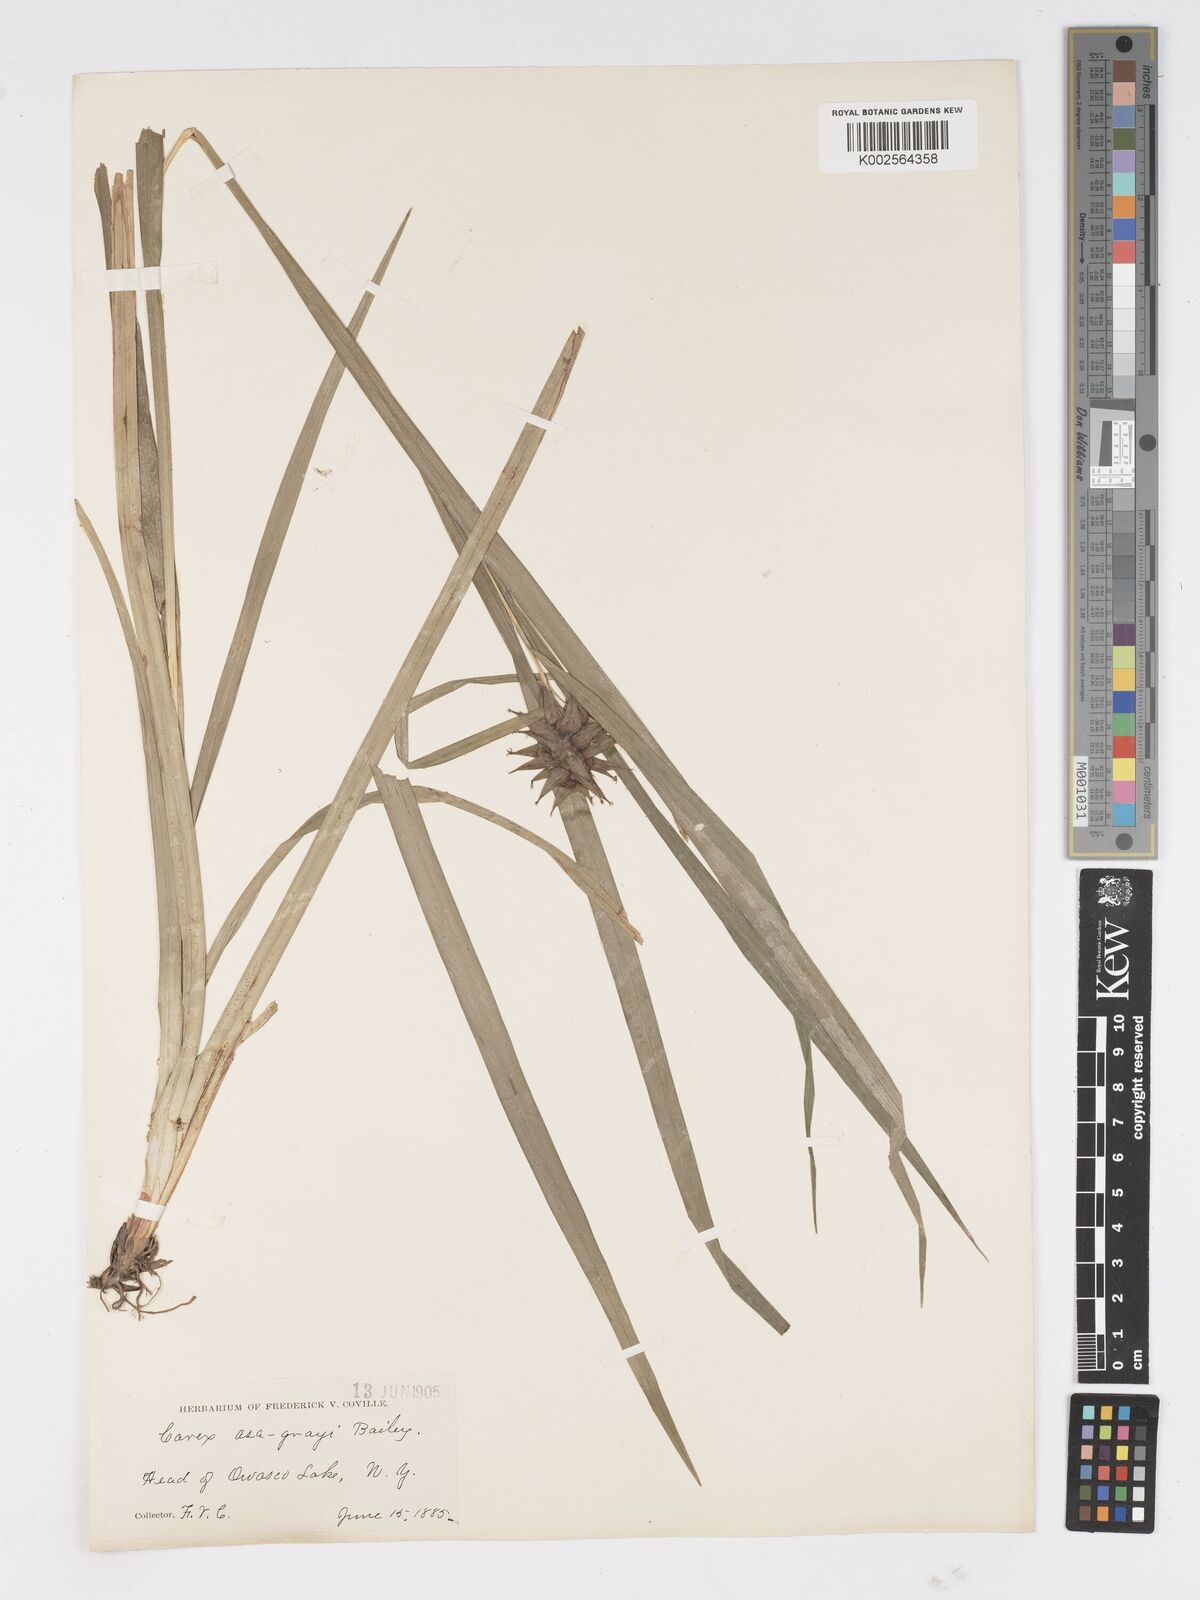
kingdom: Plantae
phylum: Tracheophyta
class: Liliopsida
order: Poales
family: Cyperaceae
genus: Carex
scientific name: Carex grayi
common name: Asa gray's sedge
